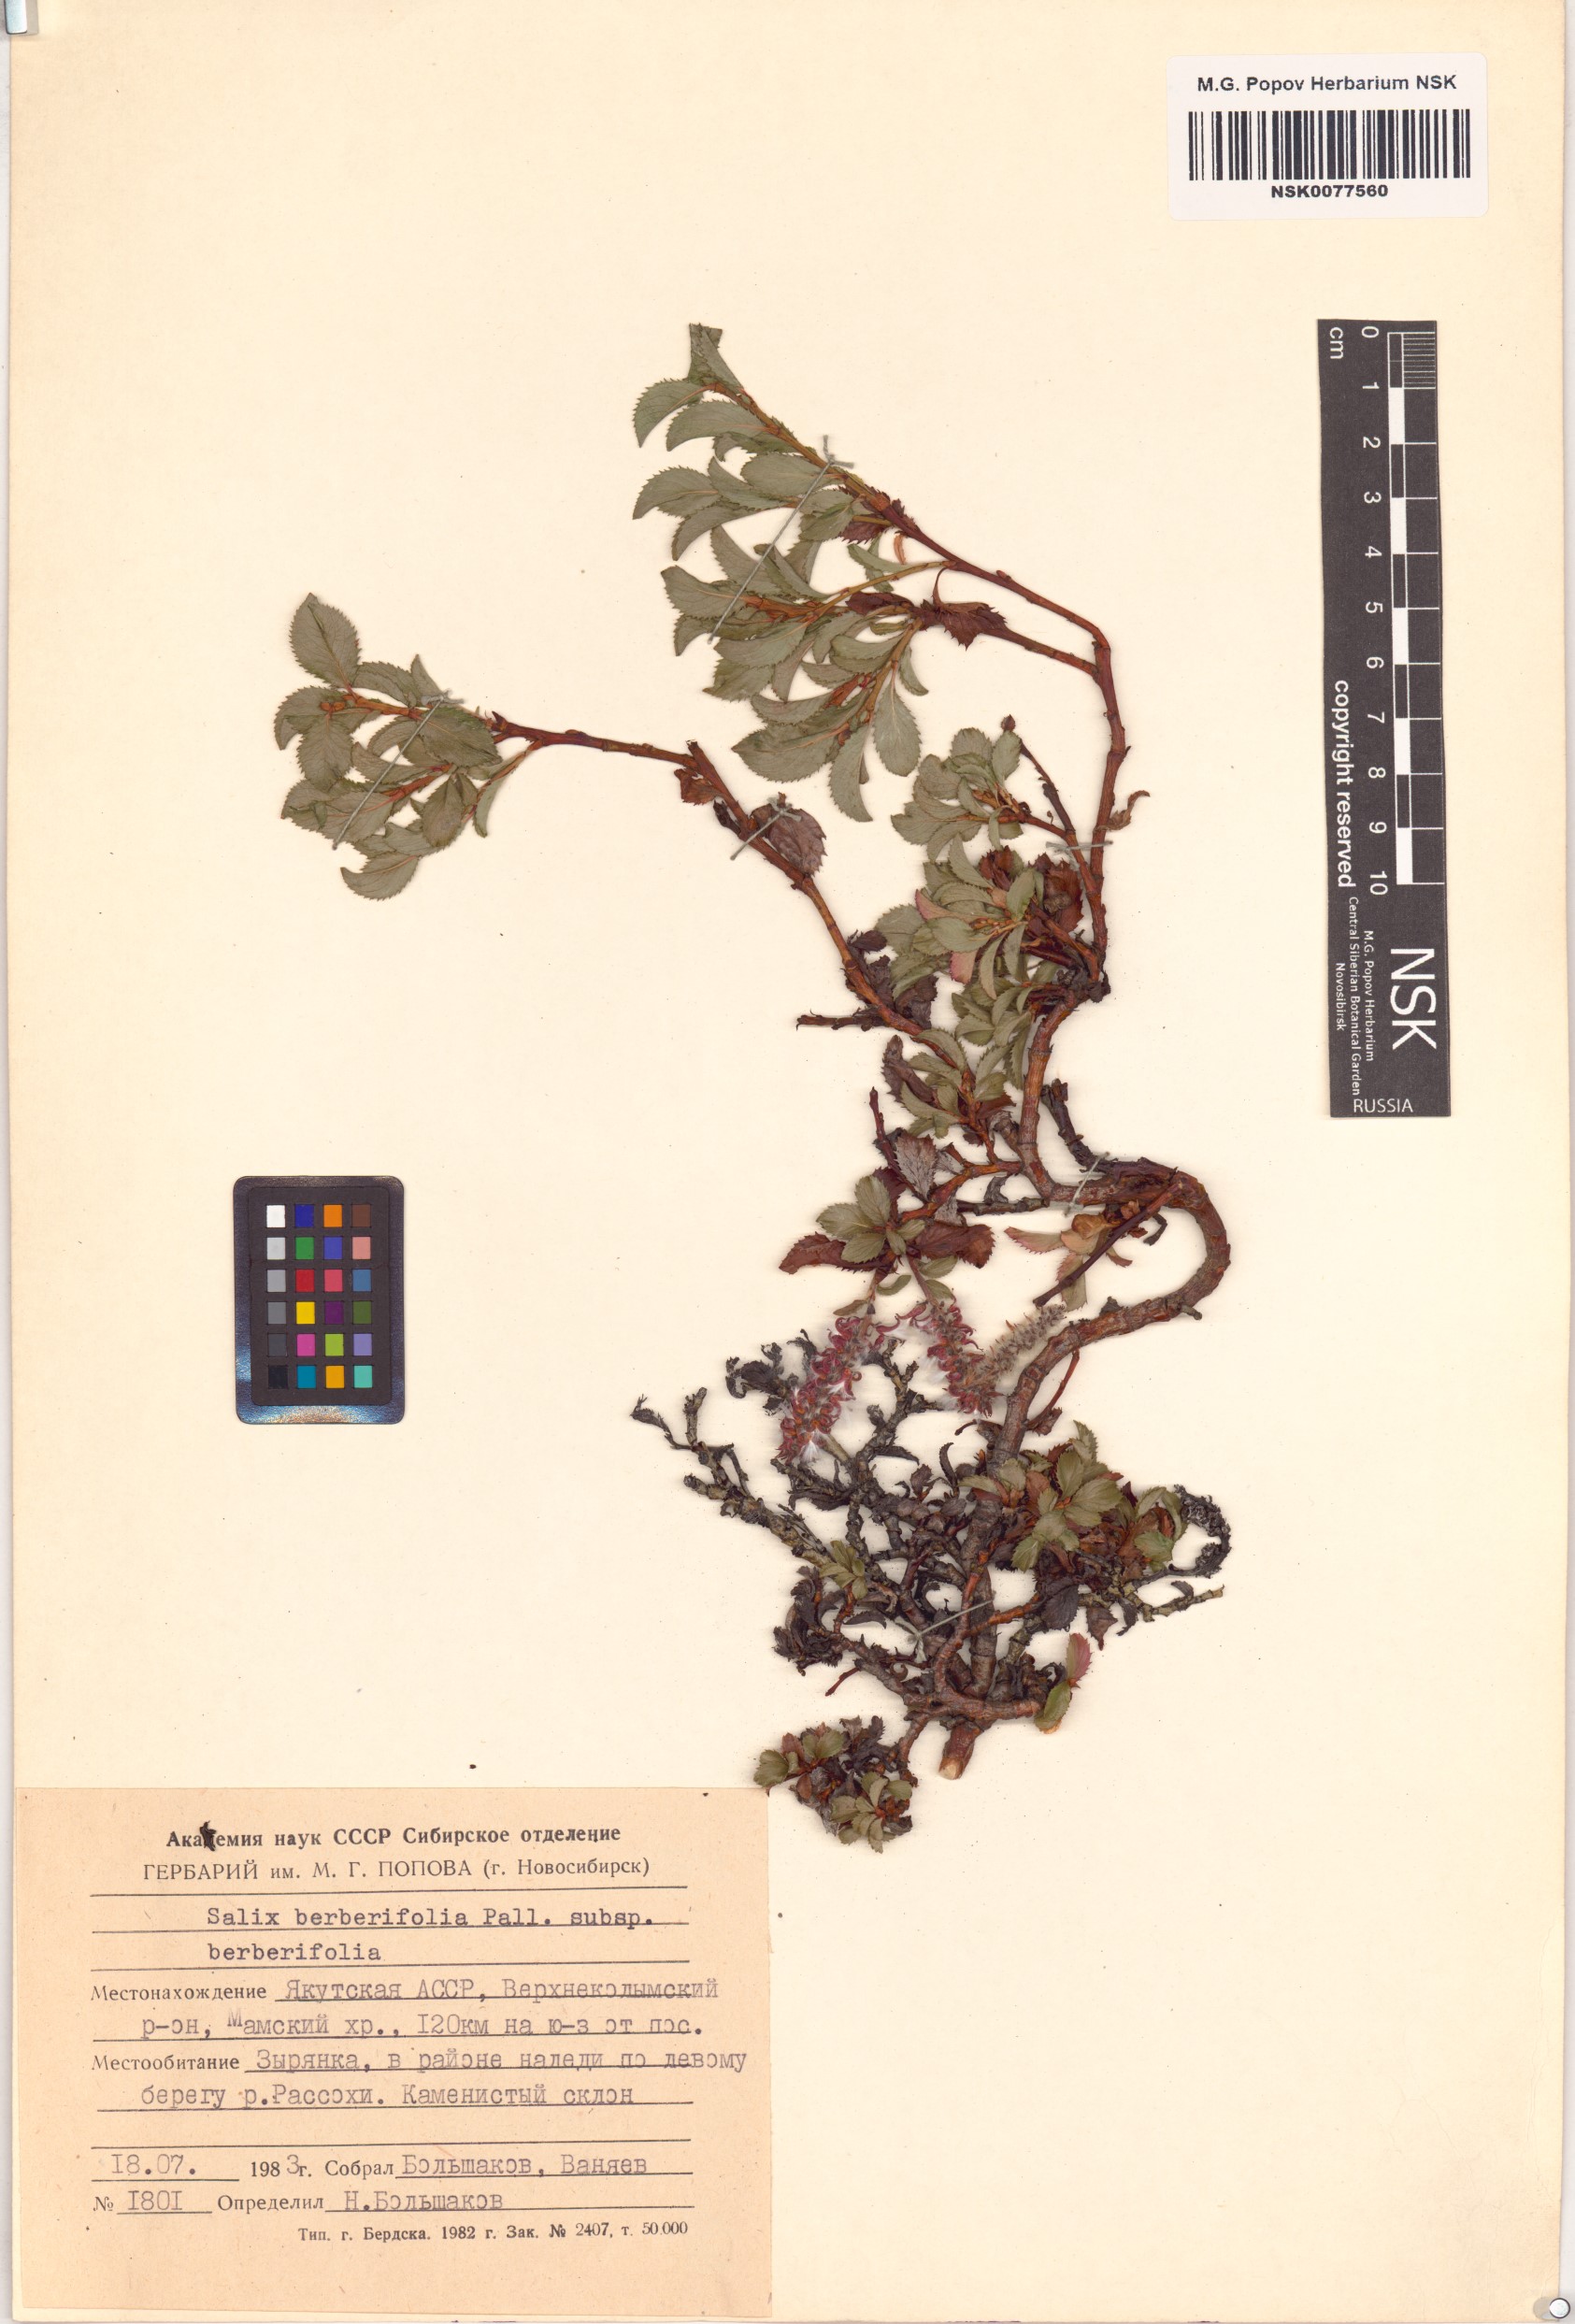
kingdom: Plantae
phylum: Tracheophyta
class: Magnoliopsida
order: Malpighiales
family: Salicaceae
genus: Salix
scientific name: Salix berberifolia
